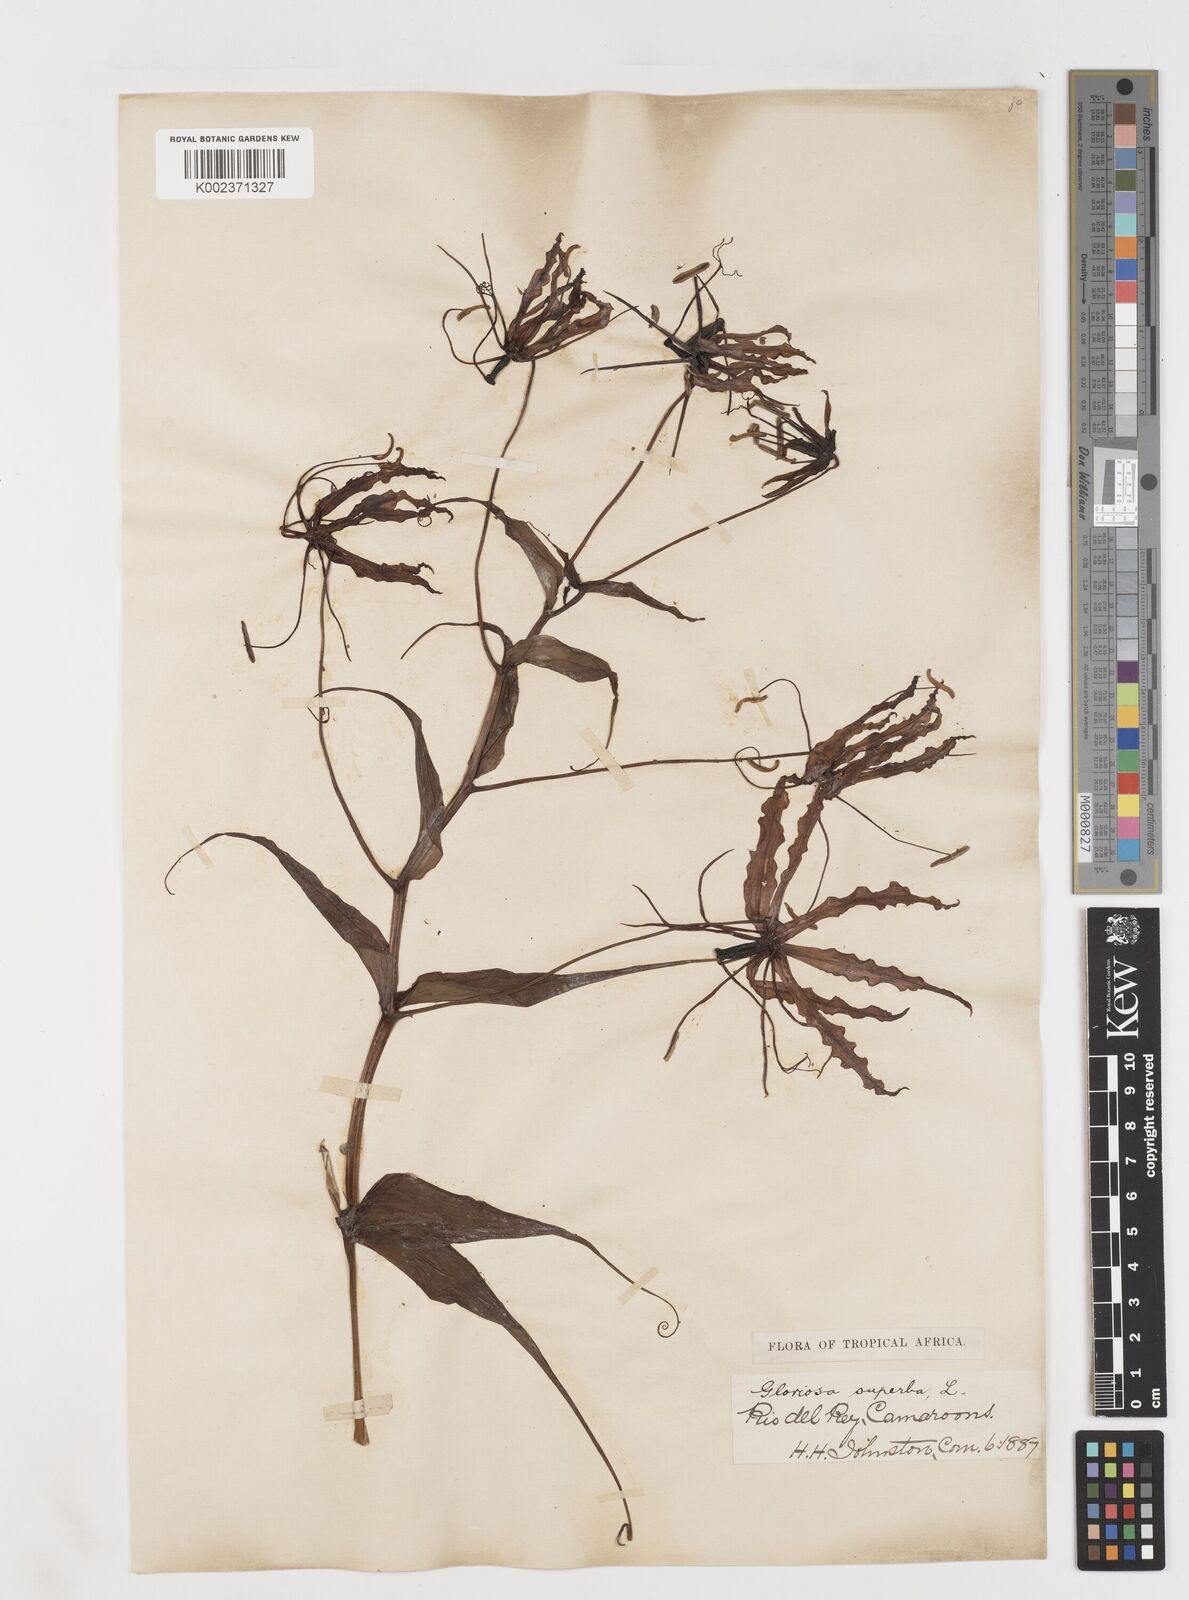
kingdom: Plantae
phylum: Tracheophyta
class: Liliopsida
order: Liliales
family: Colchicaceae
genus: Gloriosa
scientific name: Gloriosa superba
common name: Flame lily
